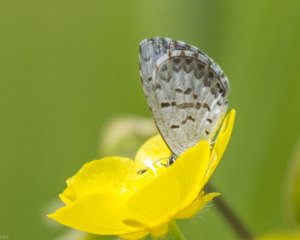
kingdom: Animalia
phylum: Arthropoda
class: Insecta
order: Lepidoptera
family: Lycaenidae
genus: Celastrina
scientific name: Celastrina serotina
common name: Cherry Gall Azure
